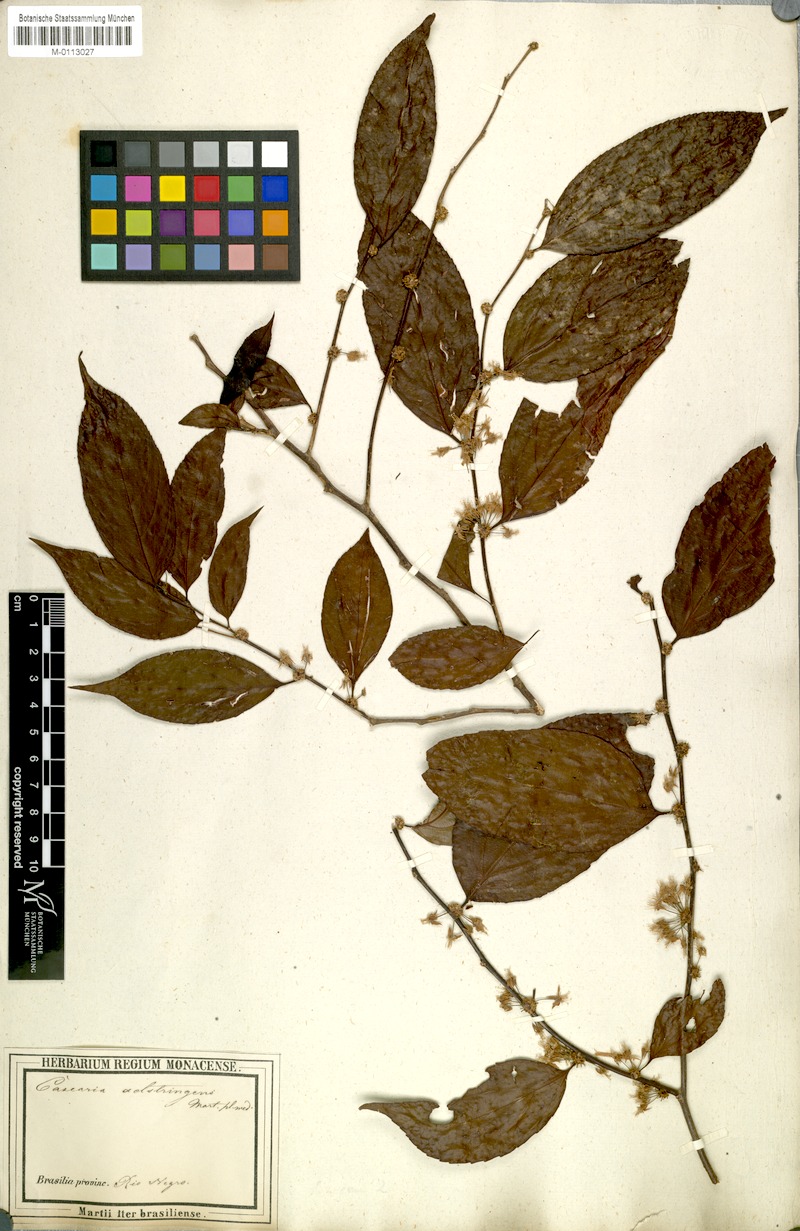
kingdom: Plantae
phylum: Tracheophyta
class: Magnoliopsida
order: Malpighiales
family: Salicaceae
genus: Casearia
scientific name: Casearia decandra
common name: Crack open
